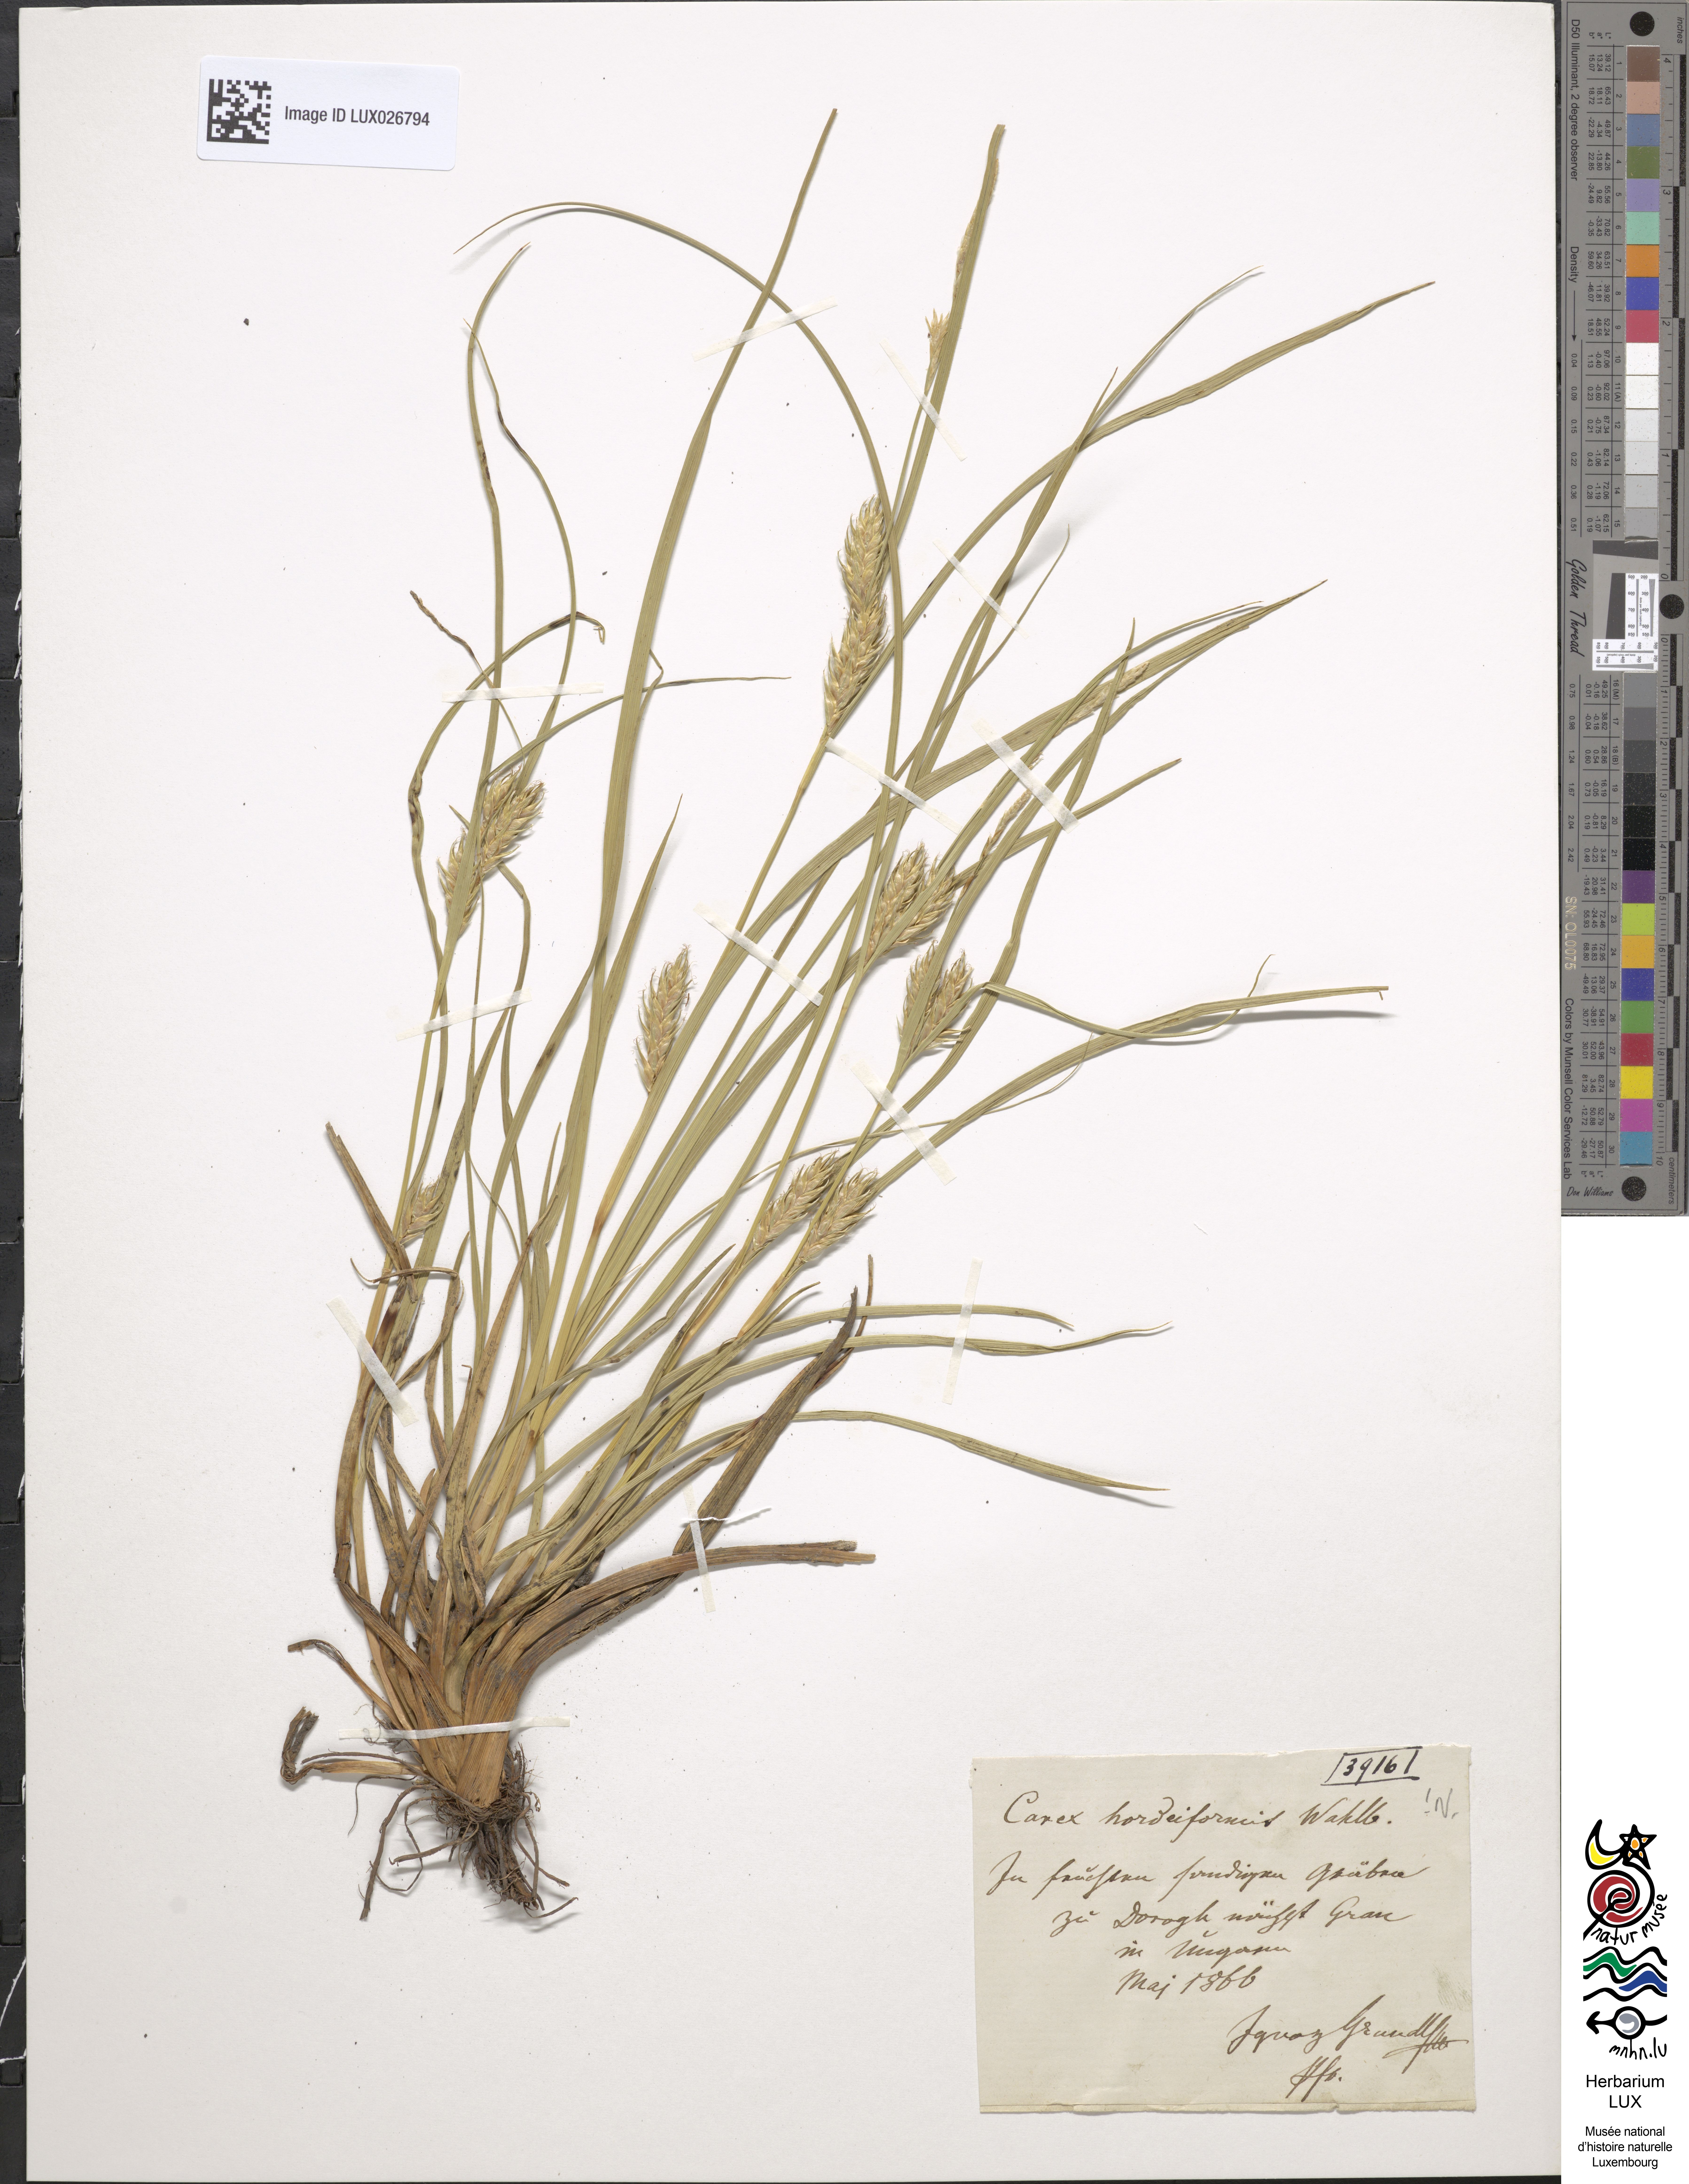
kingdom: Plantae
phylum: Tracheophyta
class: Liliopsida
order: Poales
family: Cyperaceae
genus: Carex
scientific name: Carex hordeistichos
